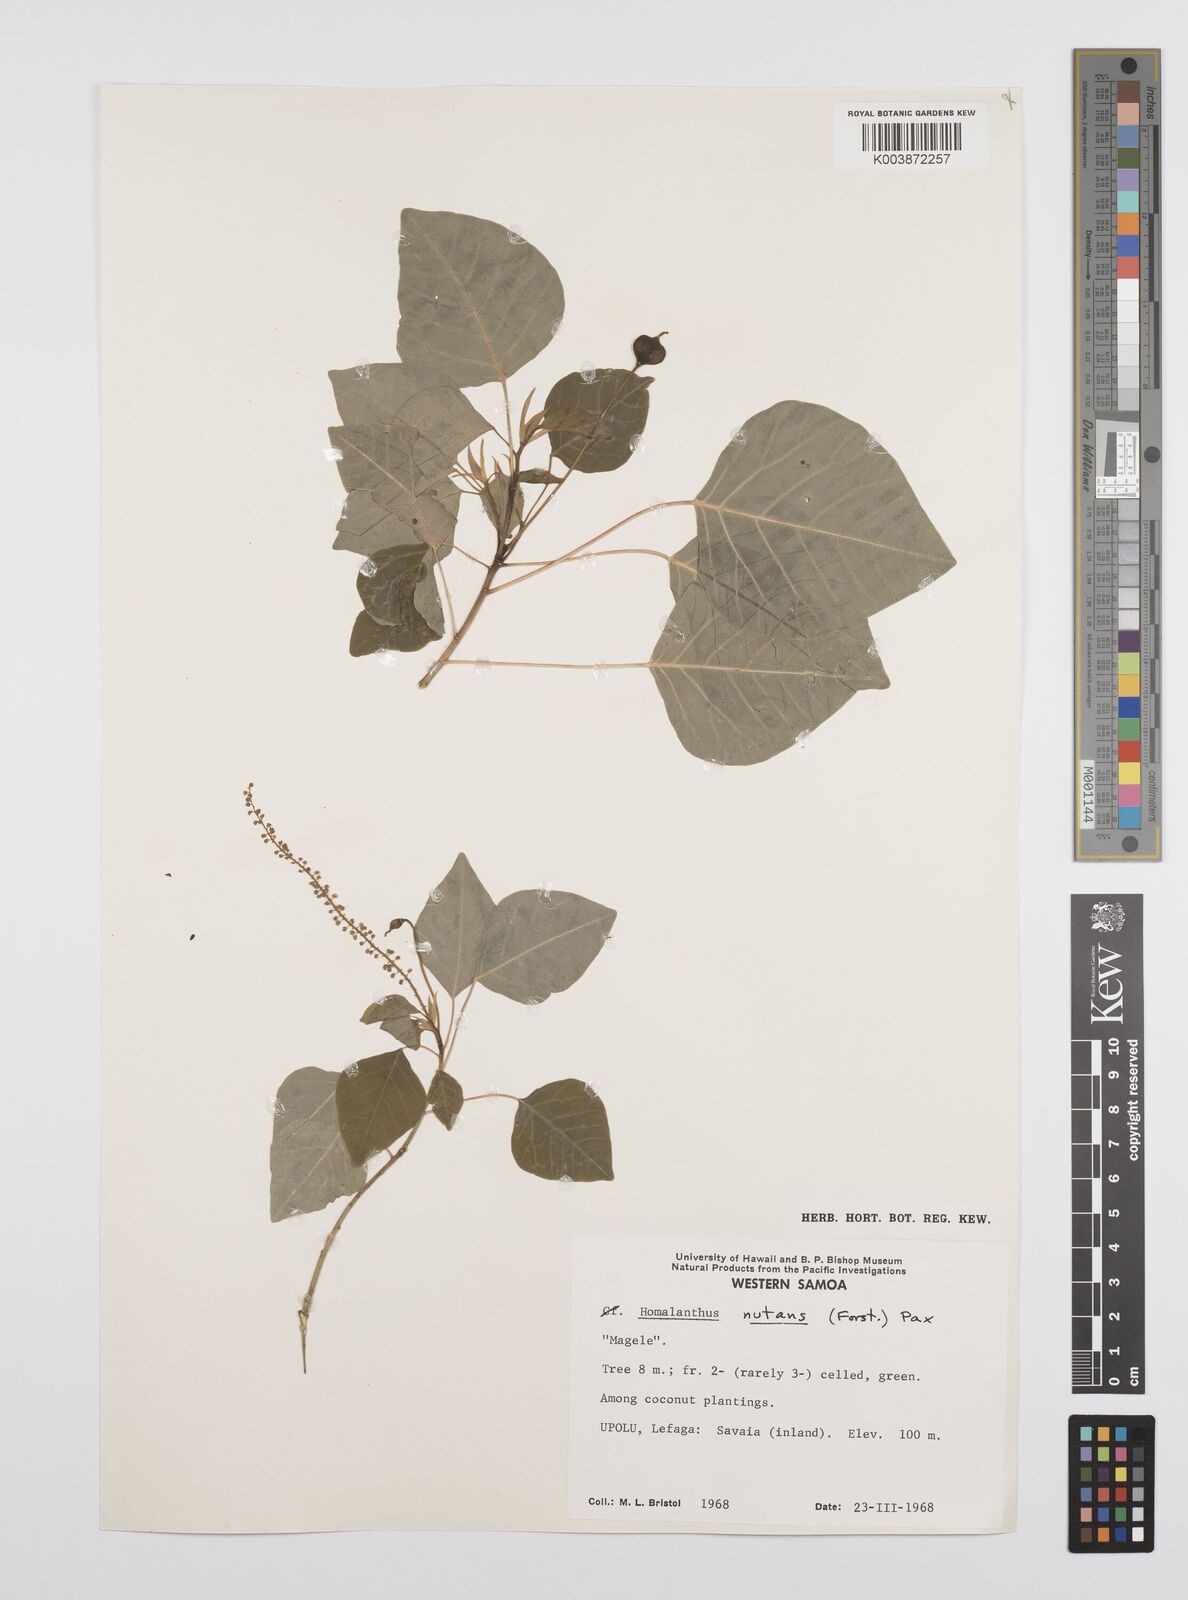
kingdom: Plantae
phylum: Tracheophyta
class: Magnoliopsida
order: Malpighiales
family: Euphorbiaceae
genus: Homalanthus
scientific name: Homalanthus nutans
